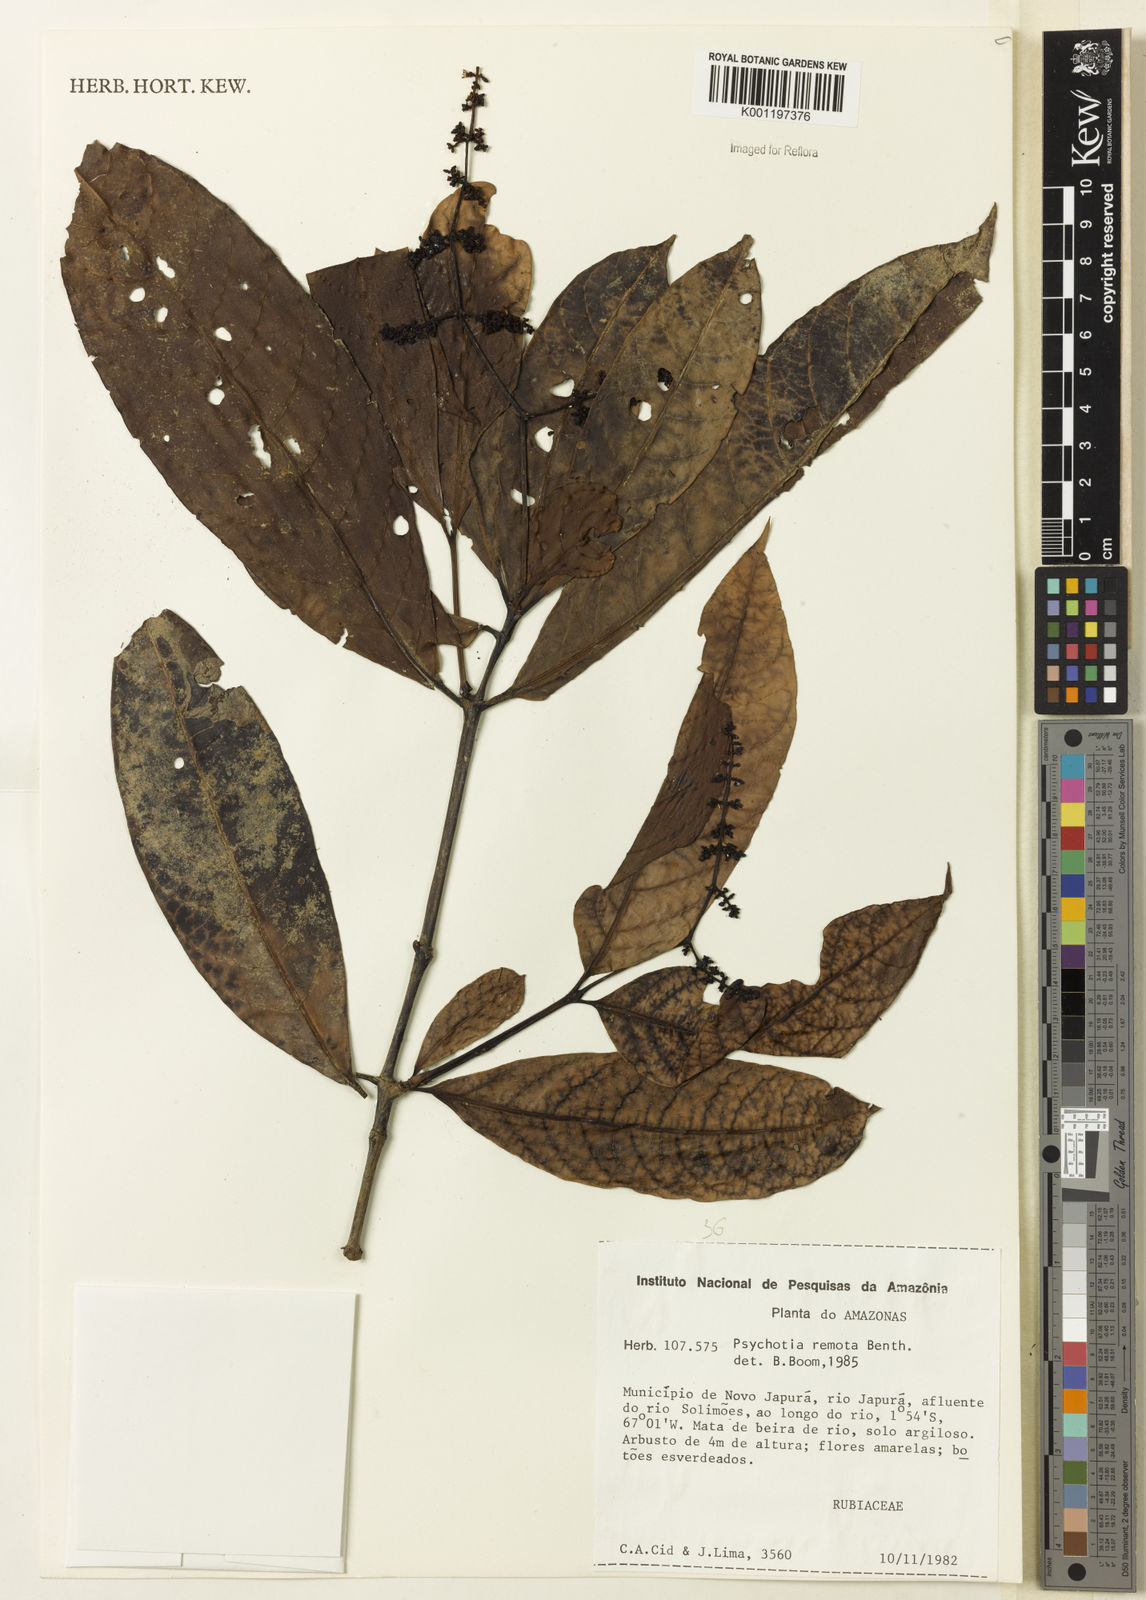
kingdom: Plantae
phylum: Tracheophyta
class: Magnoliopsida
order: Gentianales
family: Rubiaceae
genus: Psychotria
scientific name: Psychotria remota
